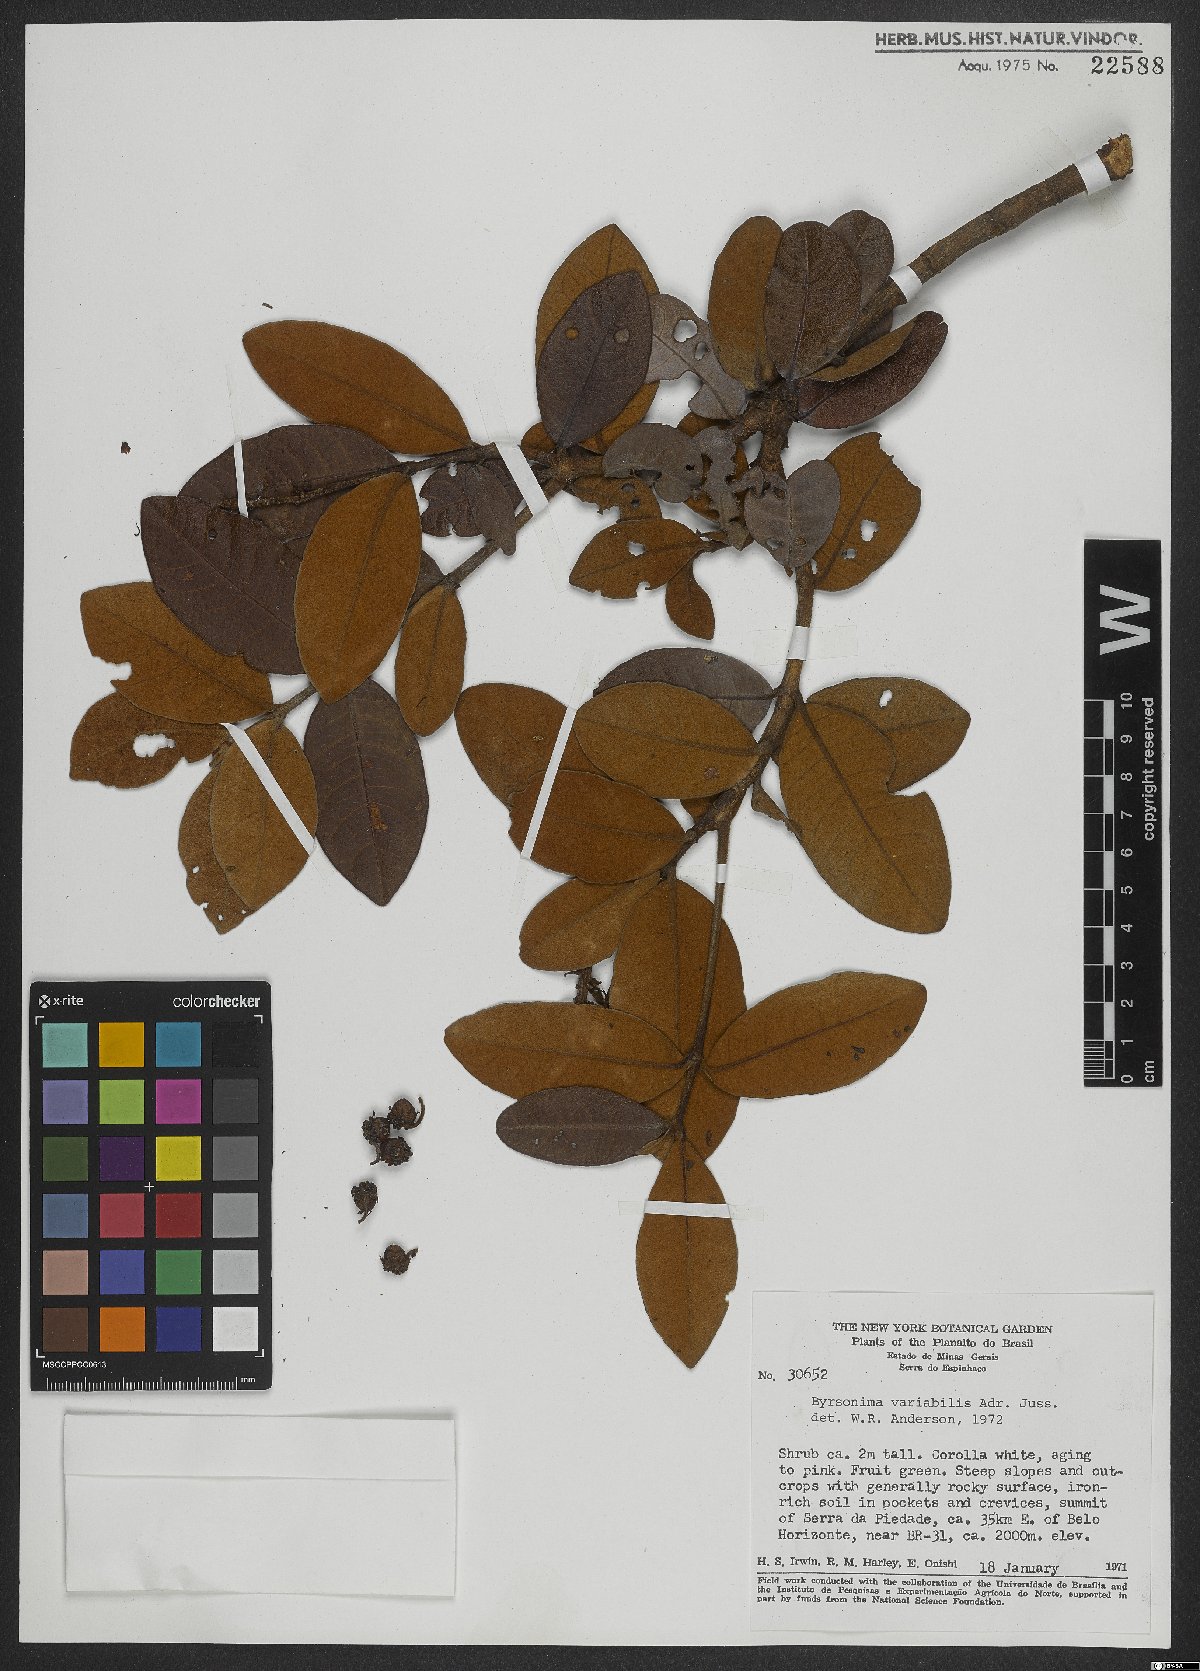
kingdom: Plantae
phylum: Tracheophyta
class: Magnoliopsida
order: Malpighiales
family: Malpighiaceae
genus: Byrsonima
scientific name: Byrsonima variabilis
